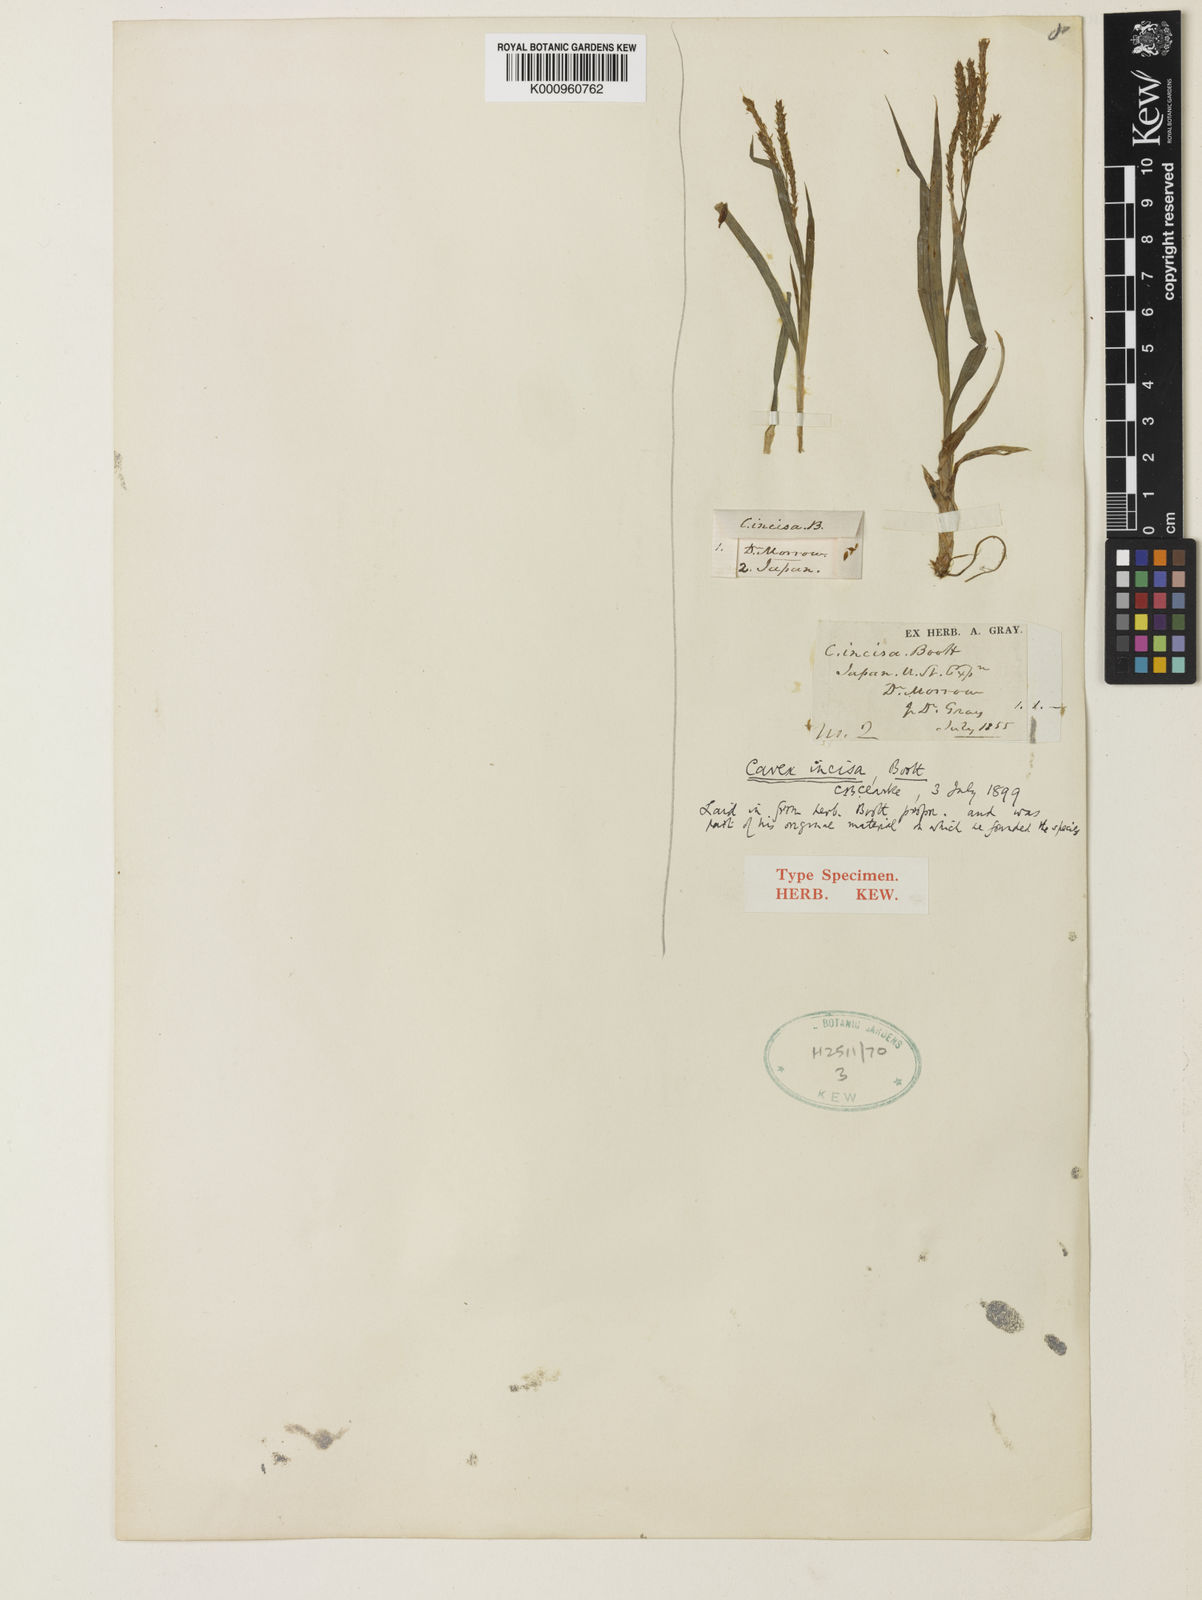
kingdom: Plantae
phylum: Tracheophyta
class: Liliopsida
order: Poales
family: Cyperaceae
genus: Carex
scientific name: Carex incisa
